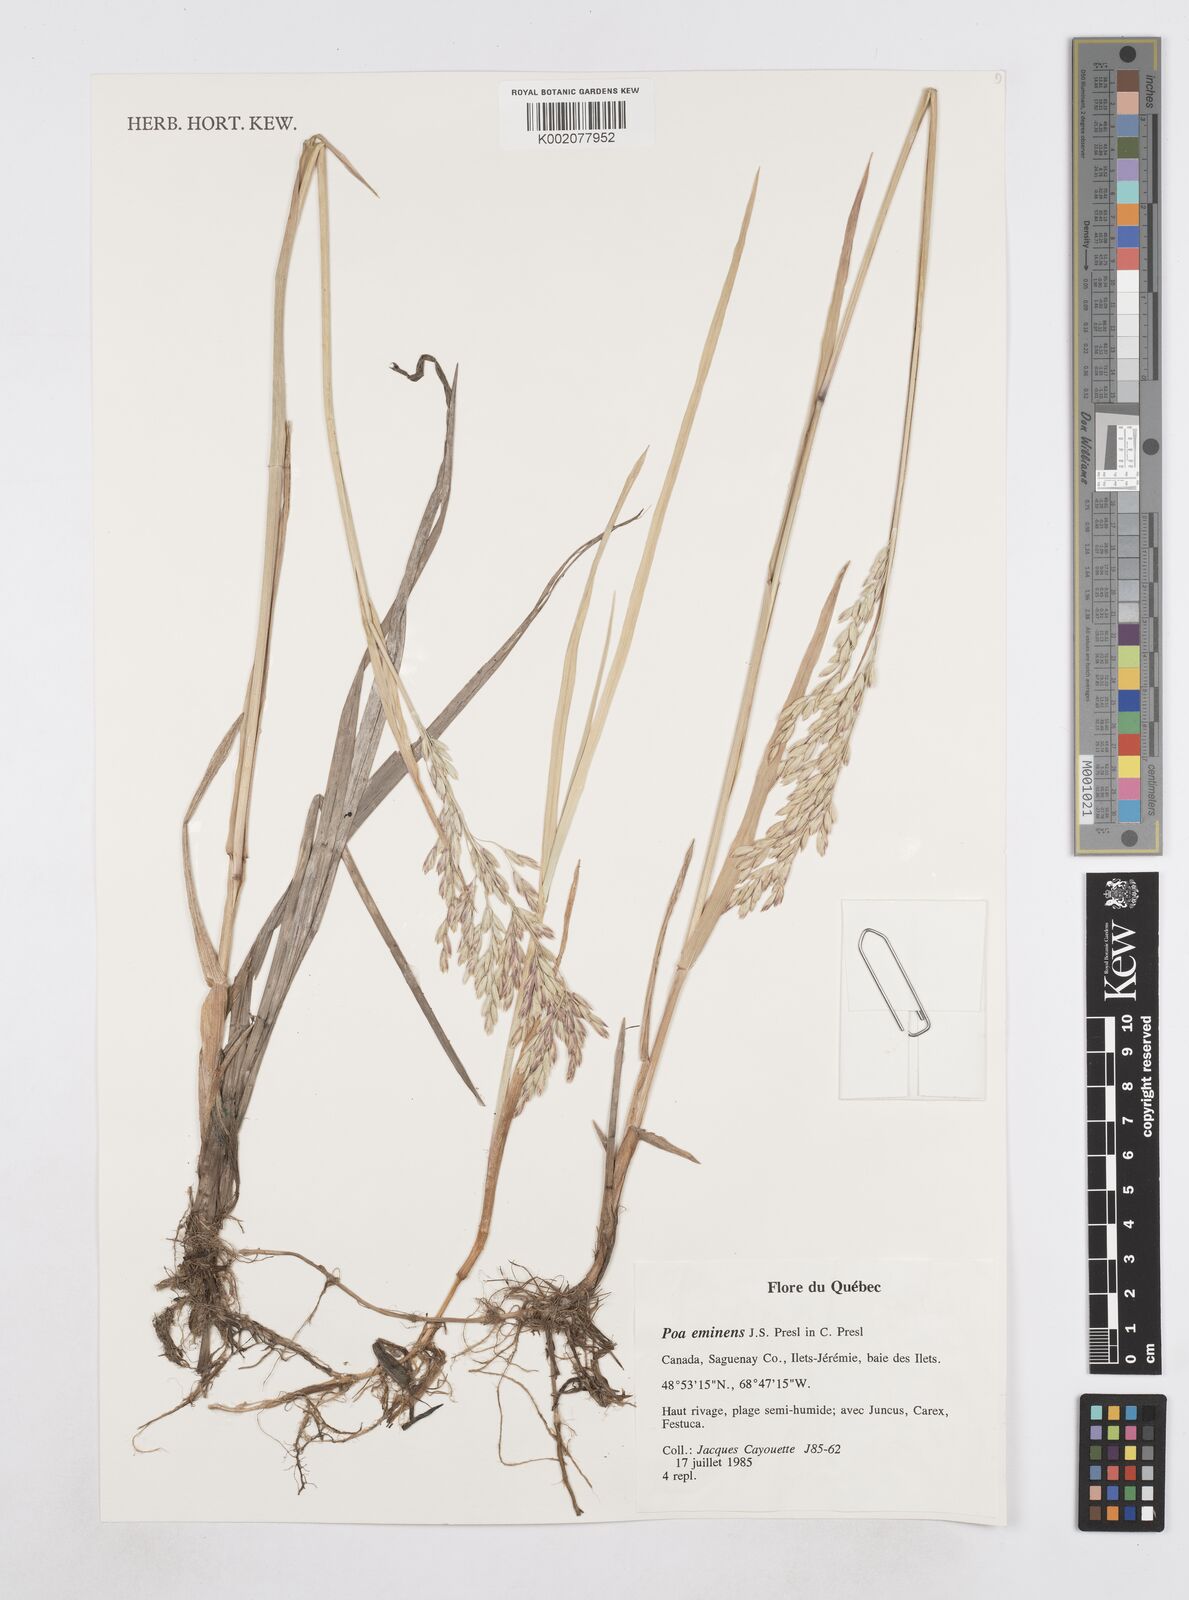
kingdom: Plantae
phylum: Tracheophyta
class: Liliopsida
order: Poales
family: Poaceae
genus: Arctopoa
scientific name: Arctopoa eminens
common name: Eminent bluegrass
